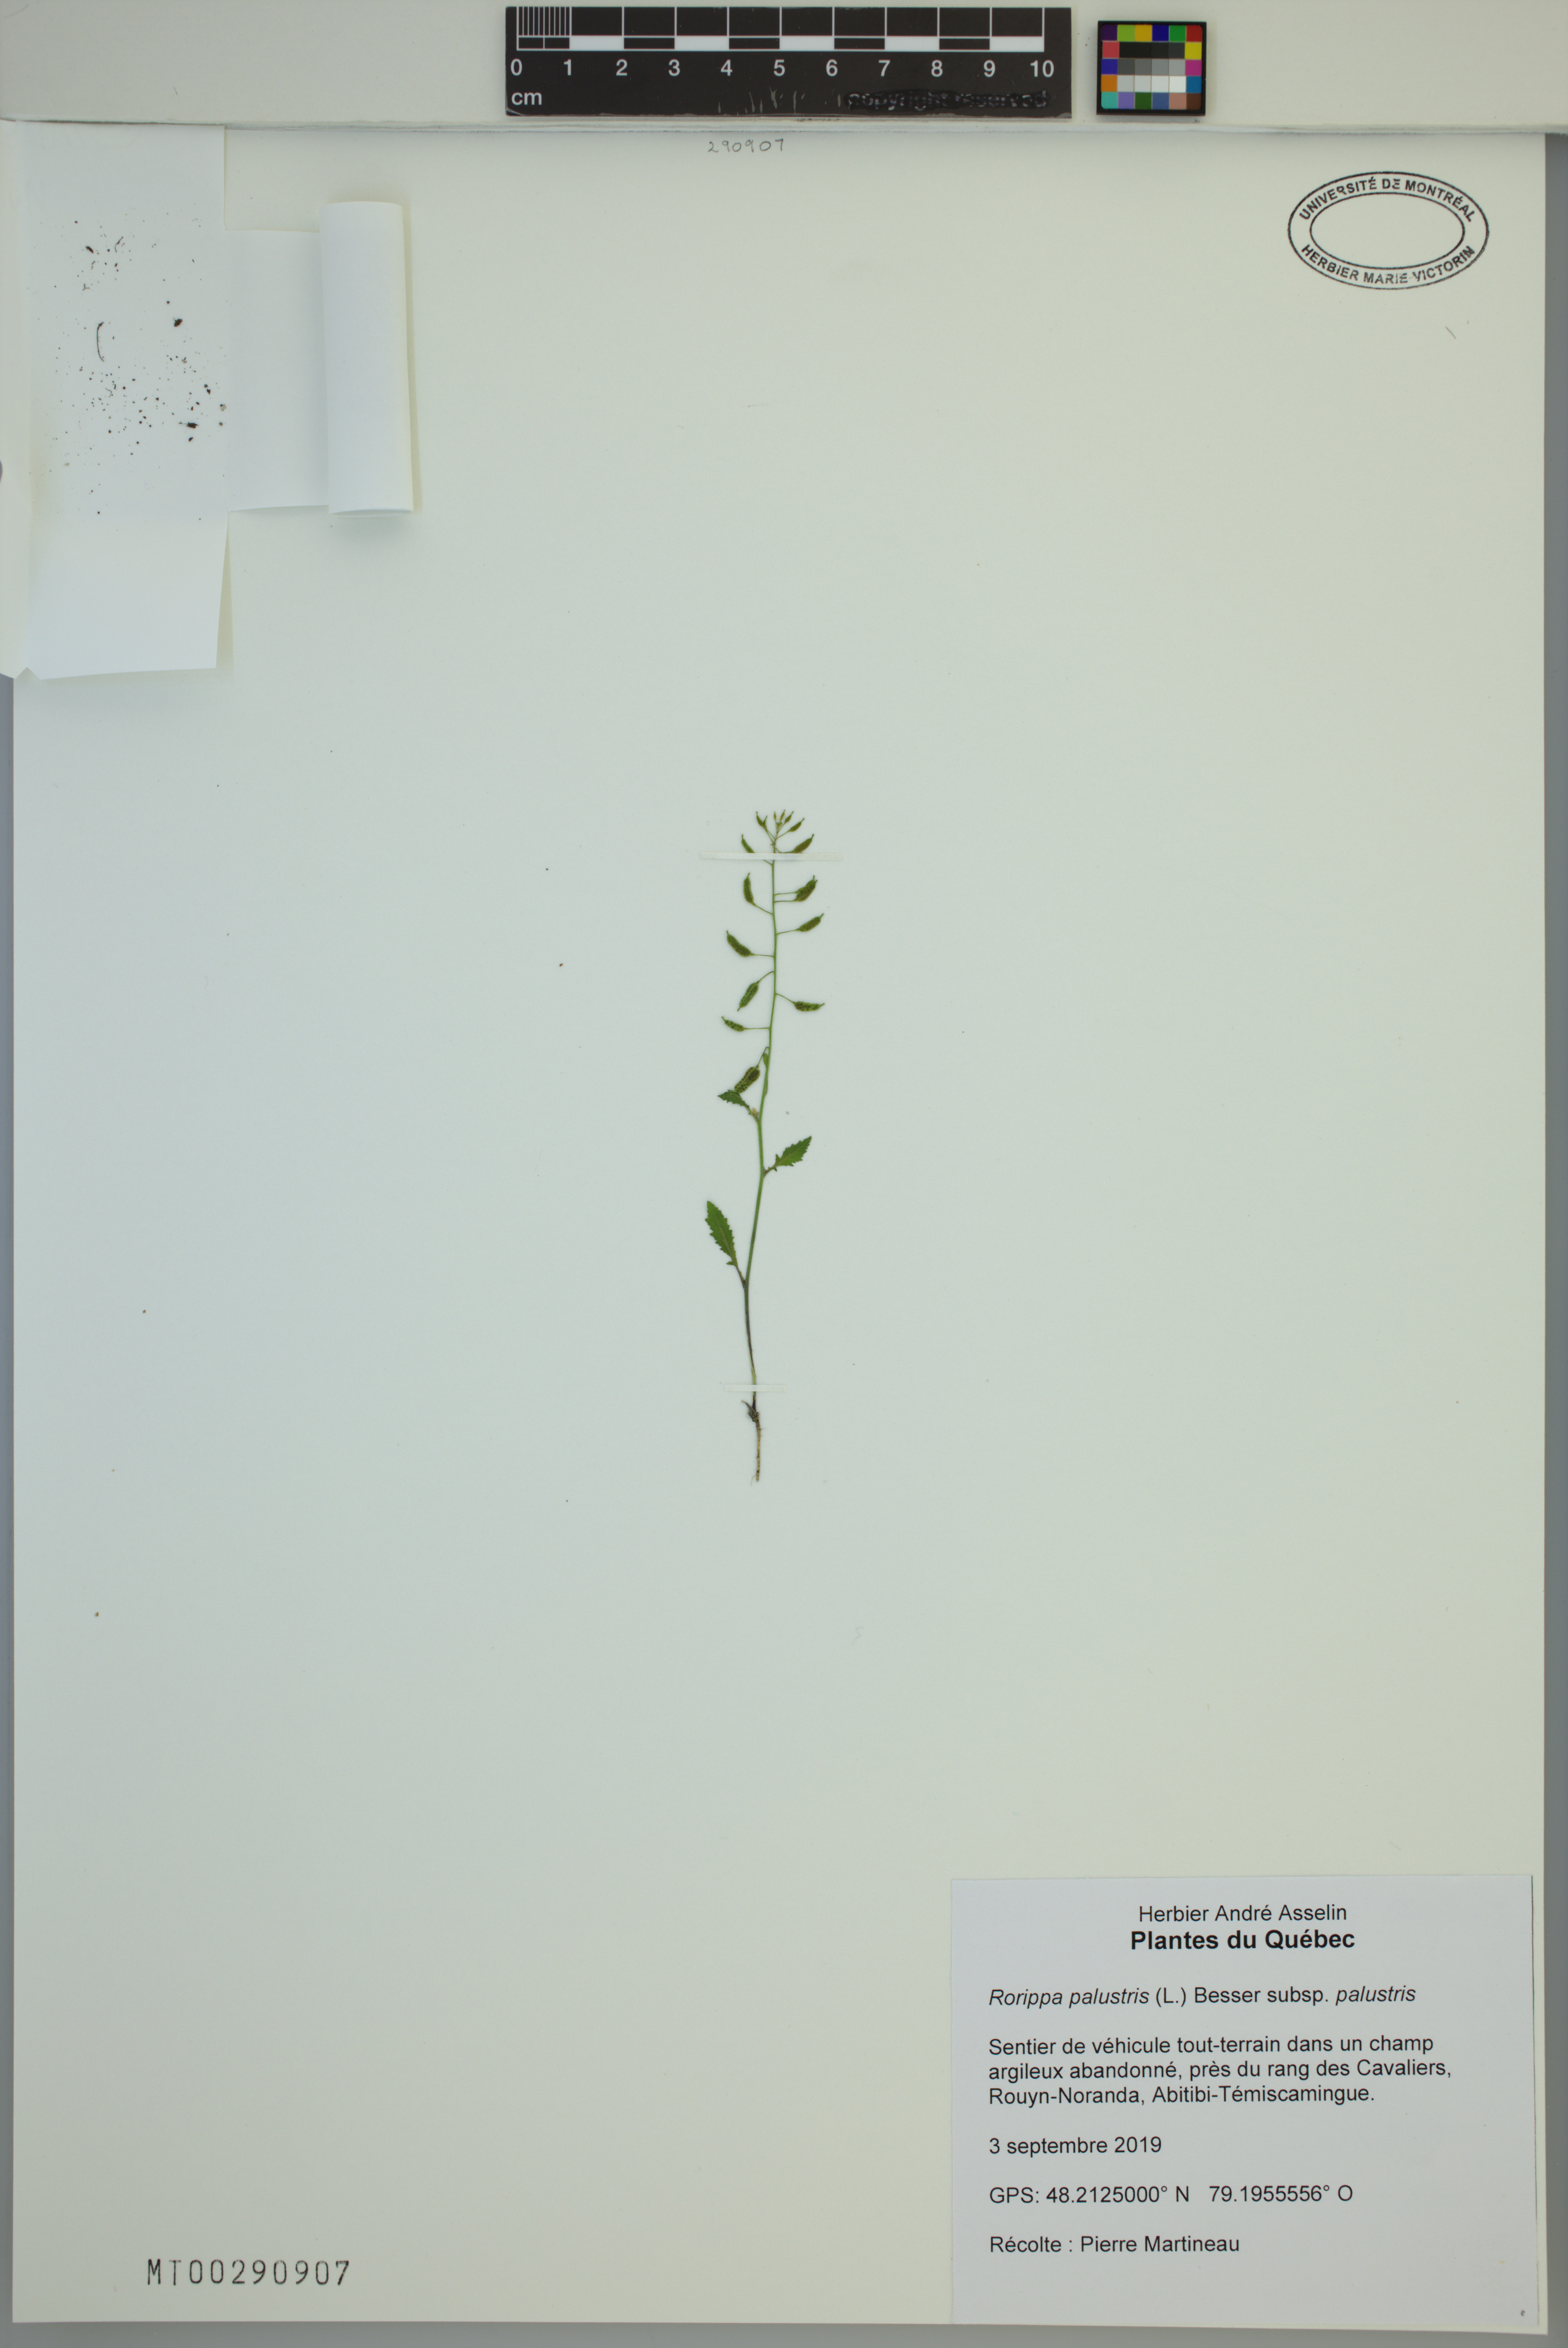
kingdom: Plantae
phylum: Tracheophyta
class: Magnoliopsida
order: Brassicales
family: Brassicaceae
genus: Rorippa
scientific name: Rorippa palustris
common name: Marsh yellow-cress
